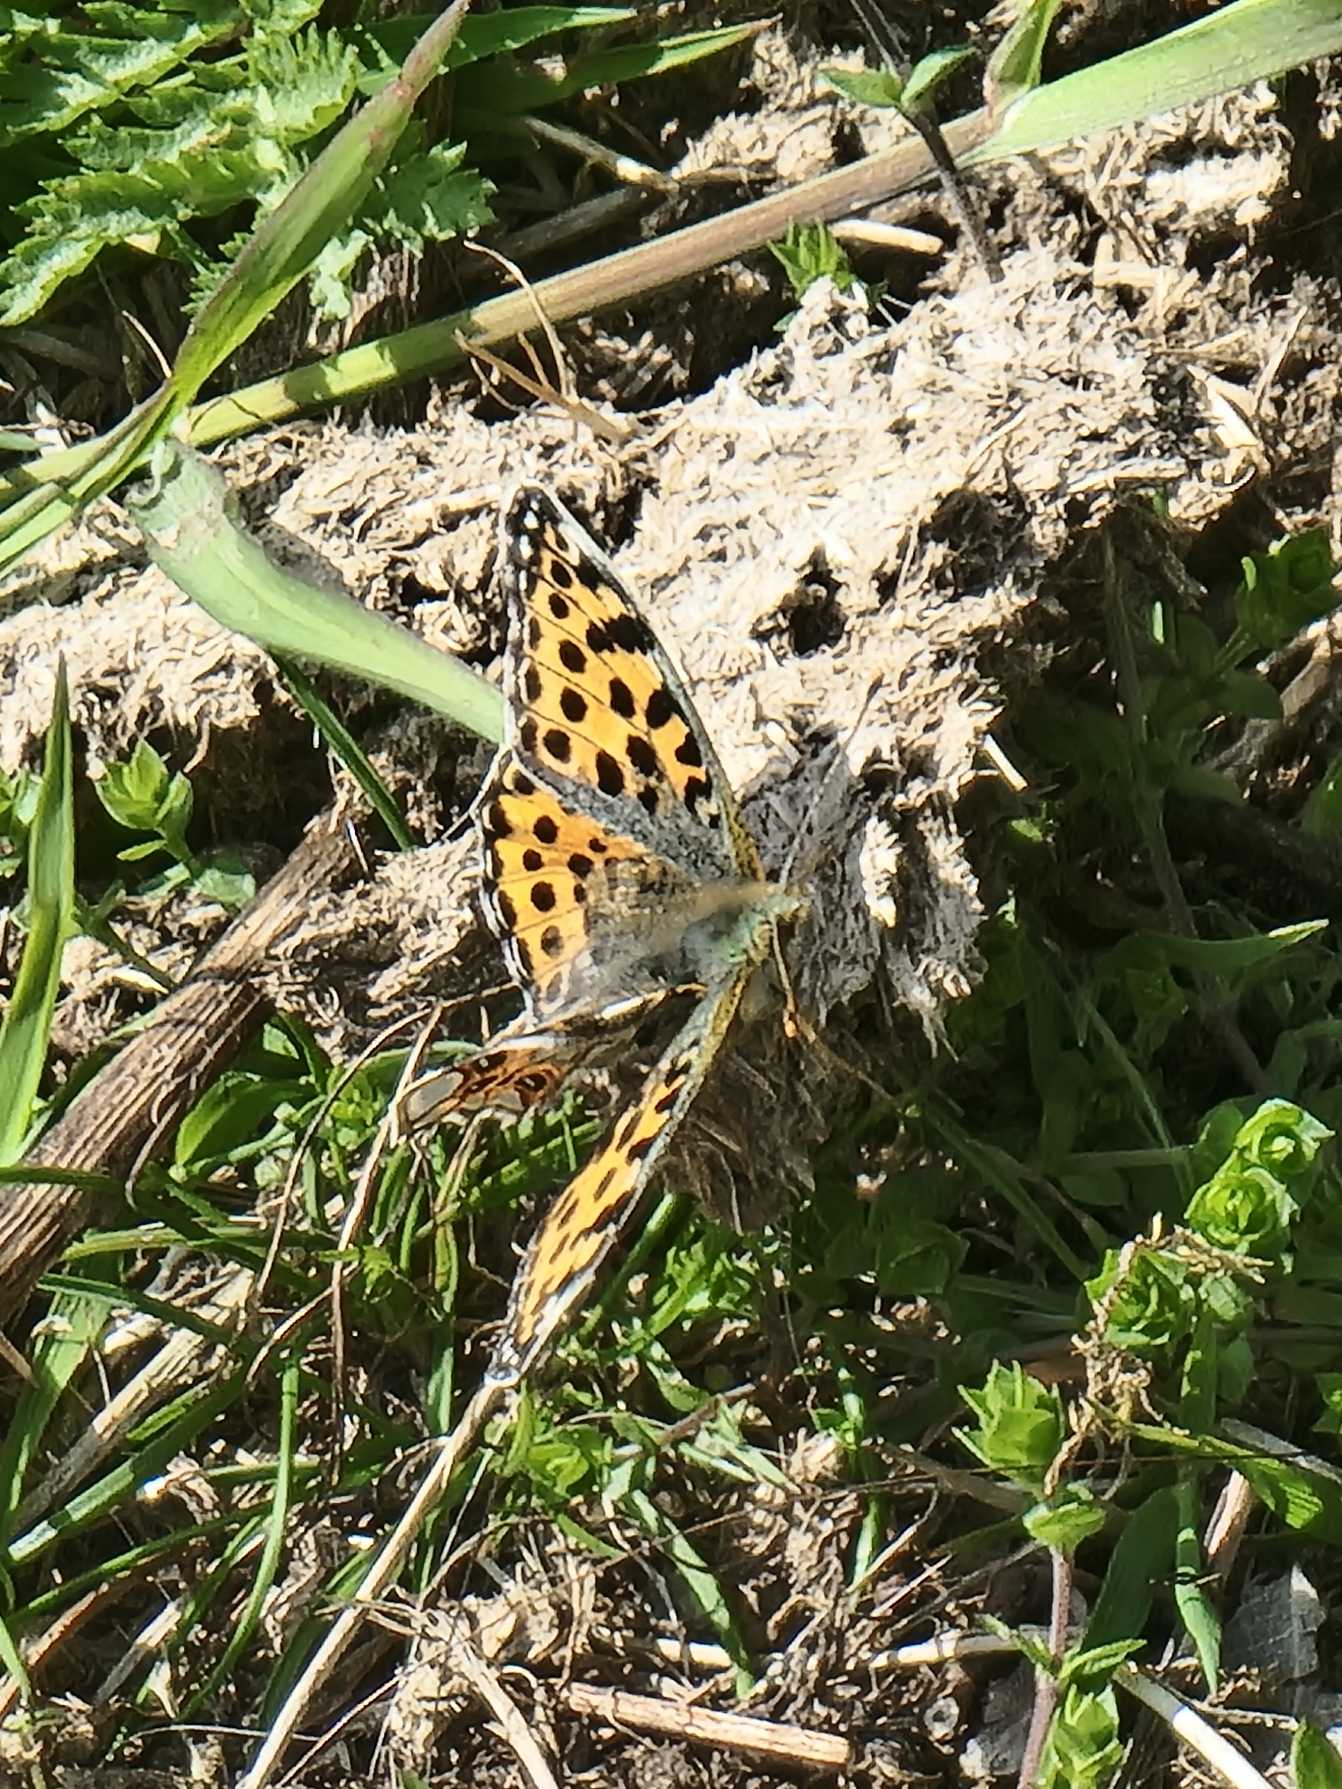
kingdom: Animalia
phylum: Arthropoda
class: Insecta
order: Lepidoptera
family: Nymphalidae
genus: Issoria
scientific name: Issoria lathonia
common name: Storplettet perlemorsommerfugl
